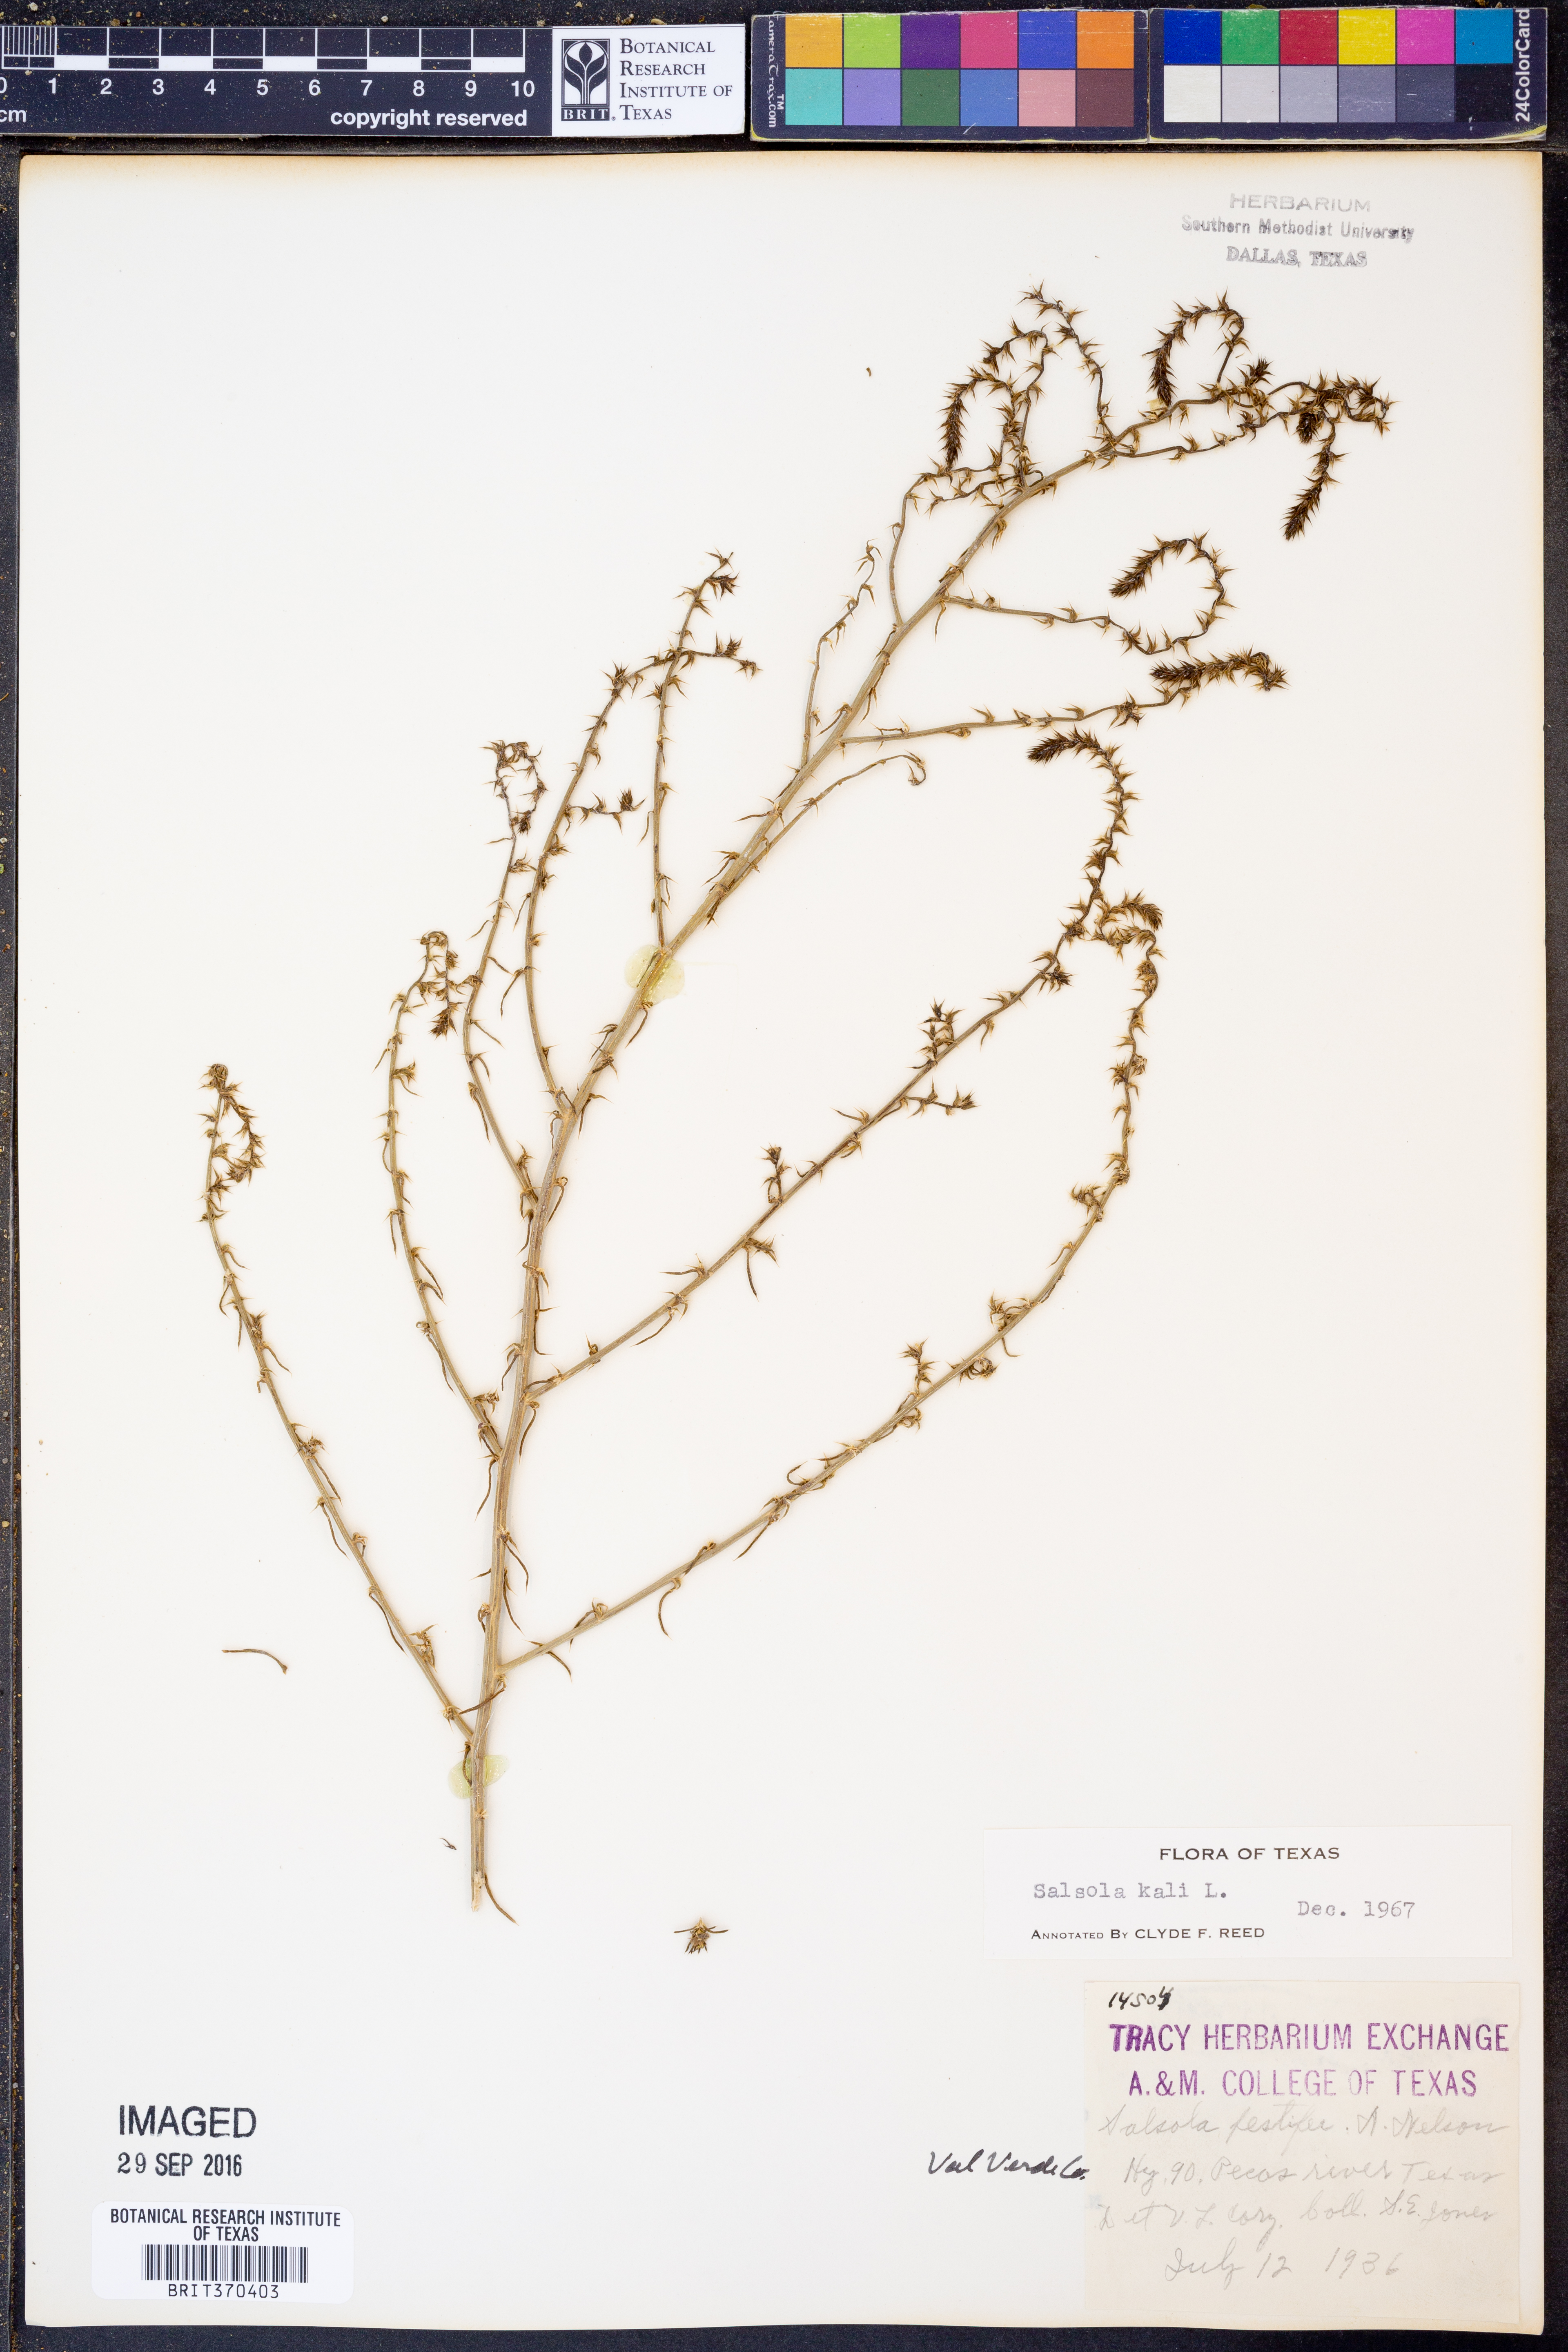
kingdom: Plantae
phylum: Tracheophyta
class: Magnoliopsida
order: Caryophyllales
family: Amaranthaceae
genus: Salsola
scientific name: Salsola kali
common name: Saltwort
